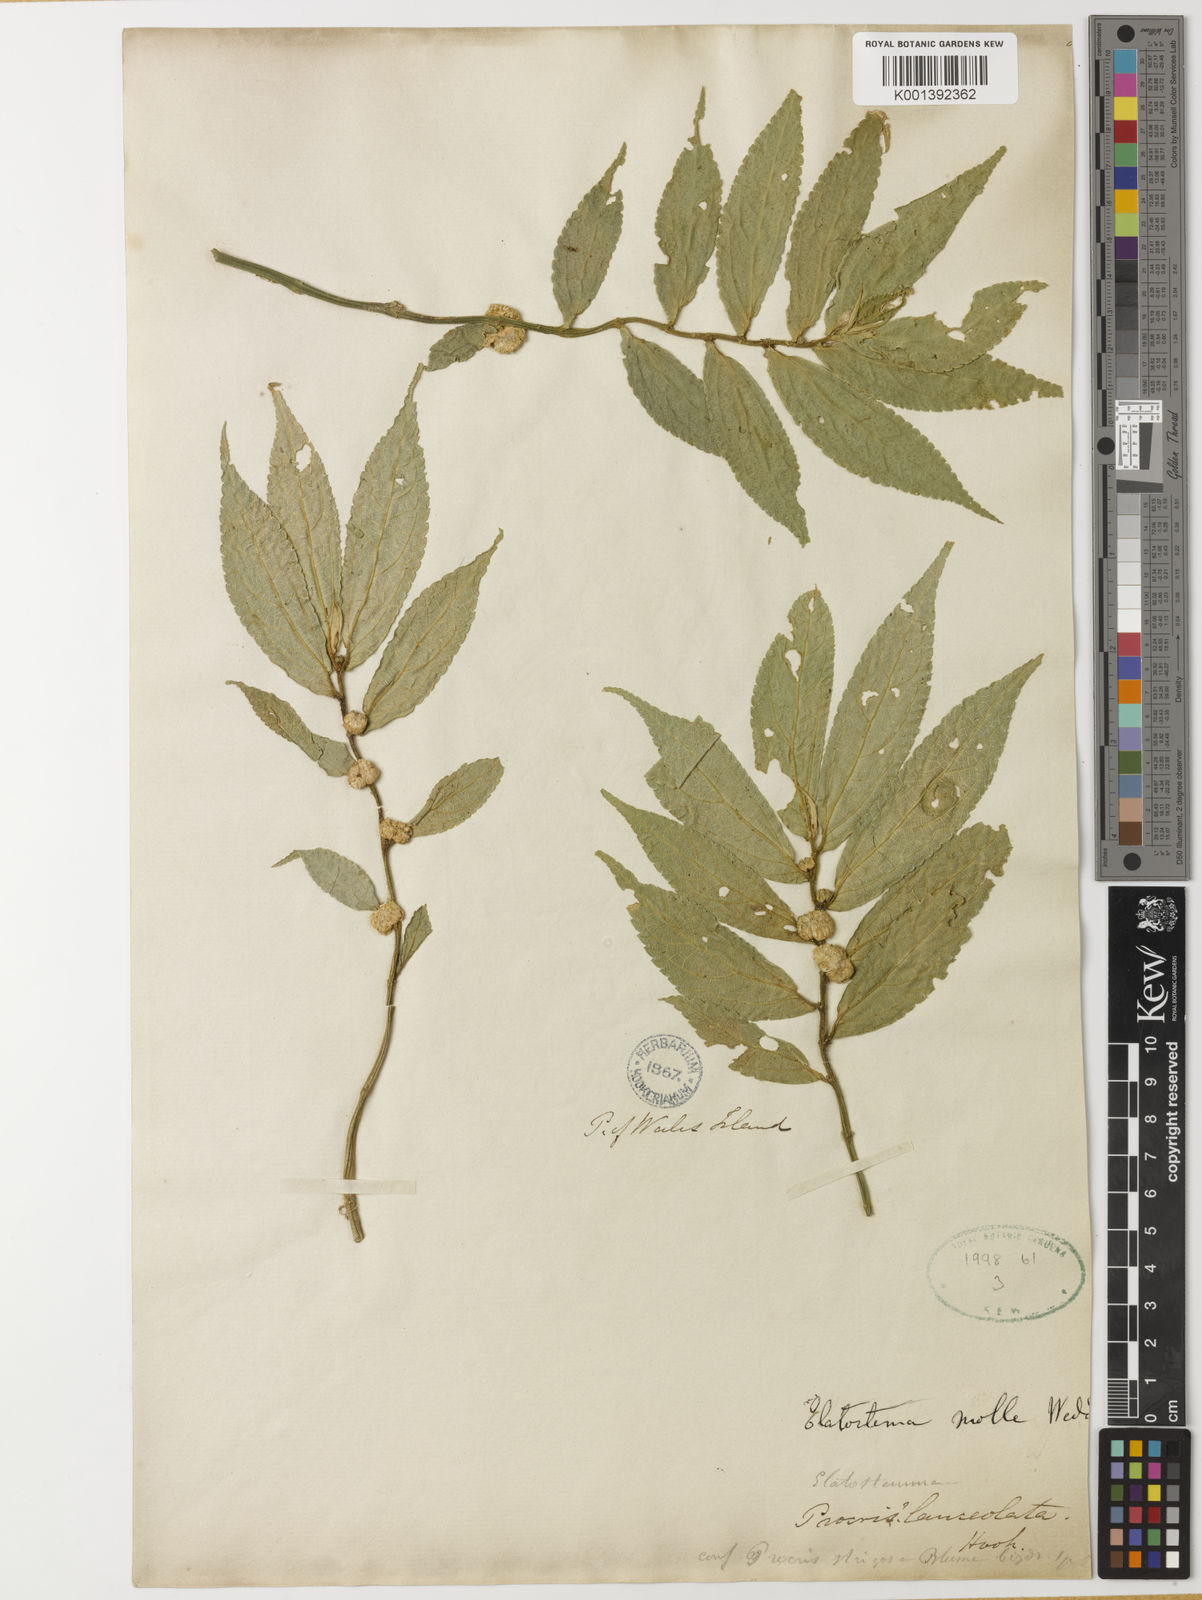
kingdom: Plantae
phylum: Tracheophyta
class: Magnoliopsida
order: Rosales
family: Urticaceae
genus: Elatostema
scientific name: Elatostema molle
